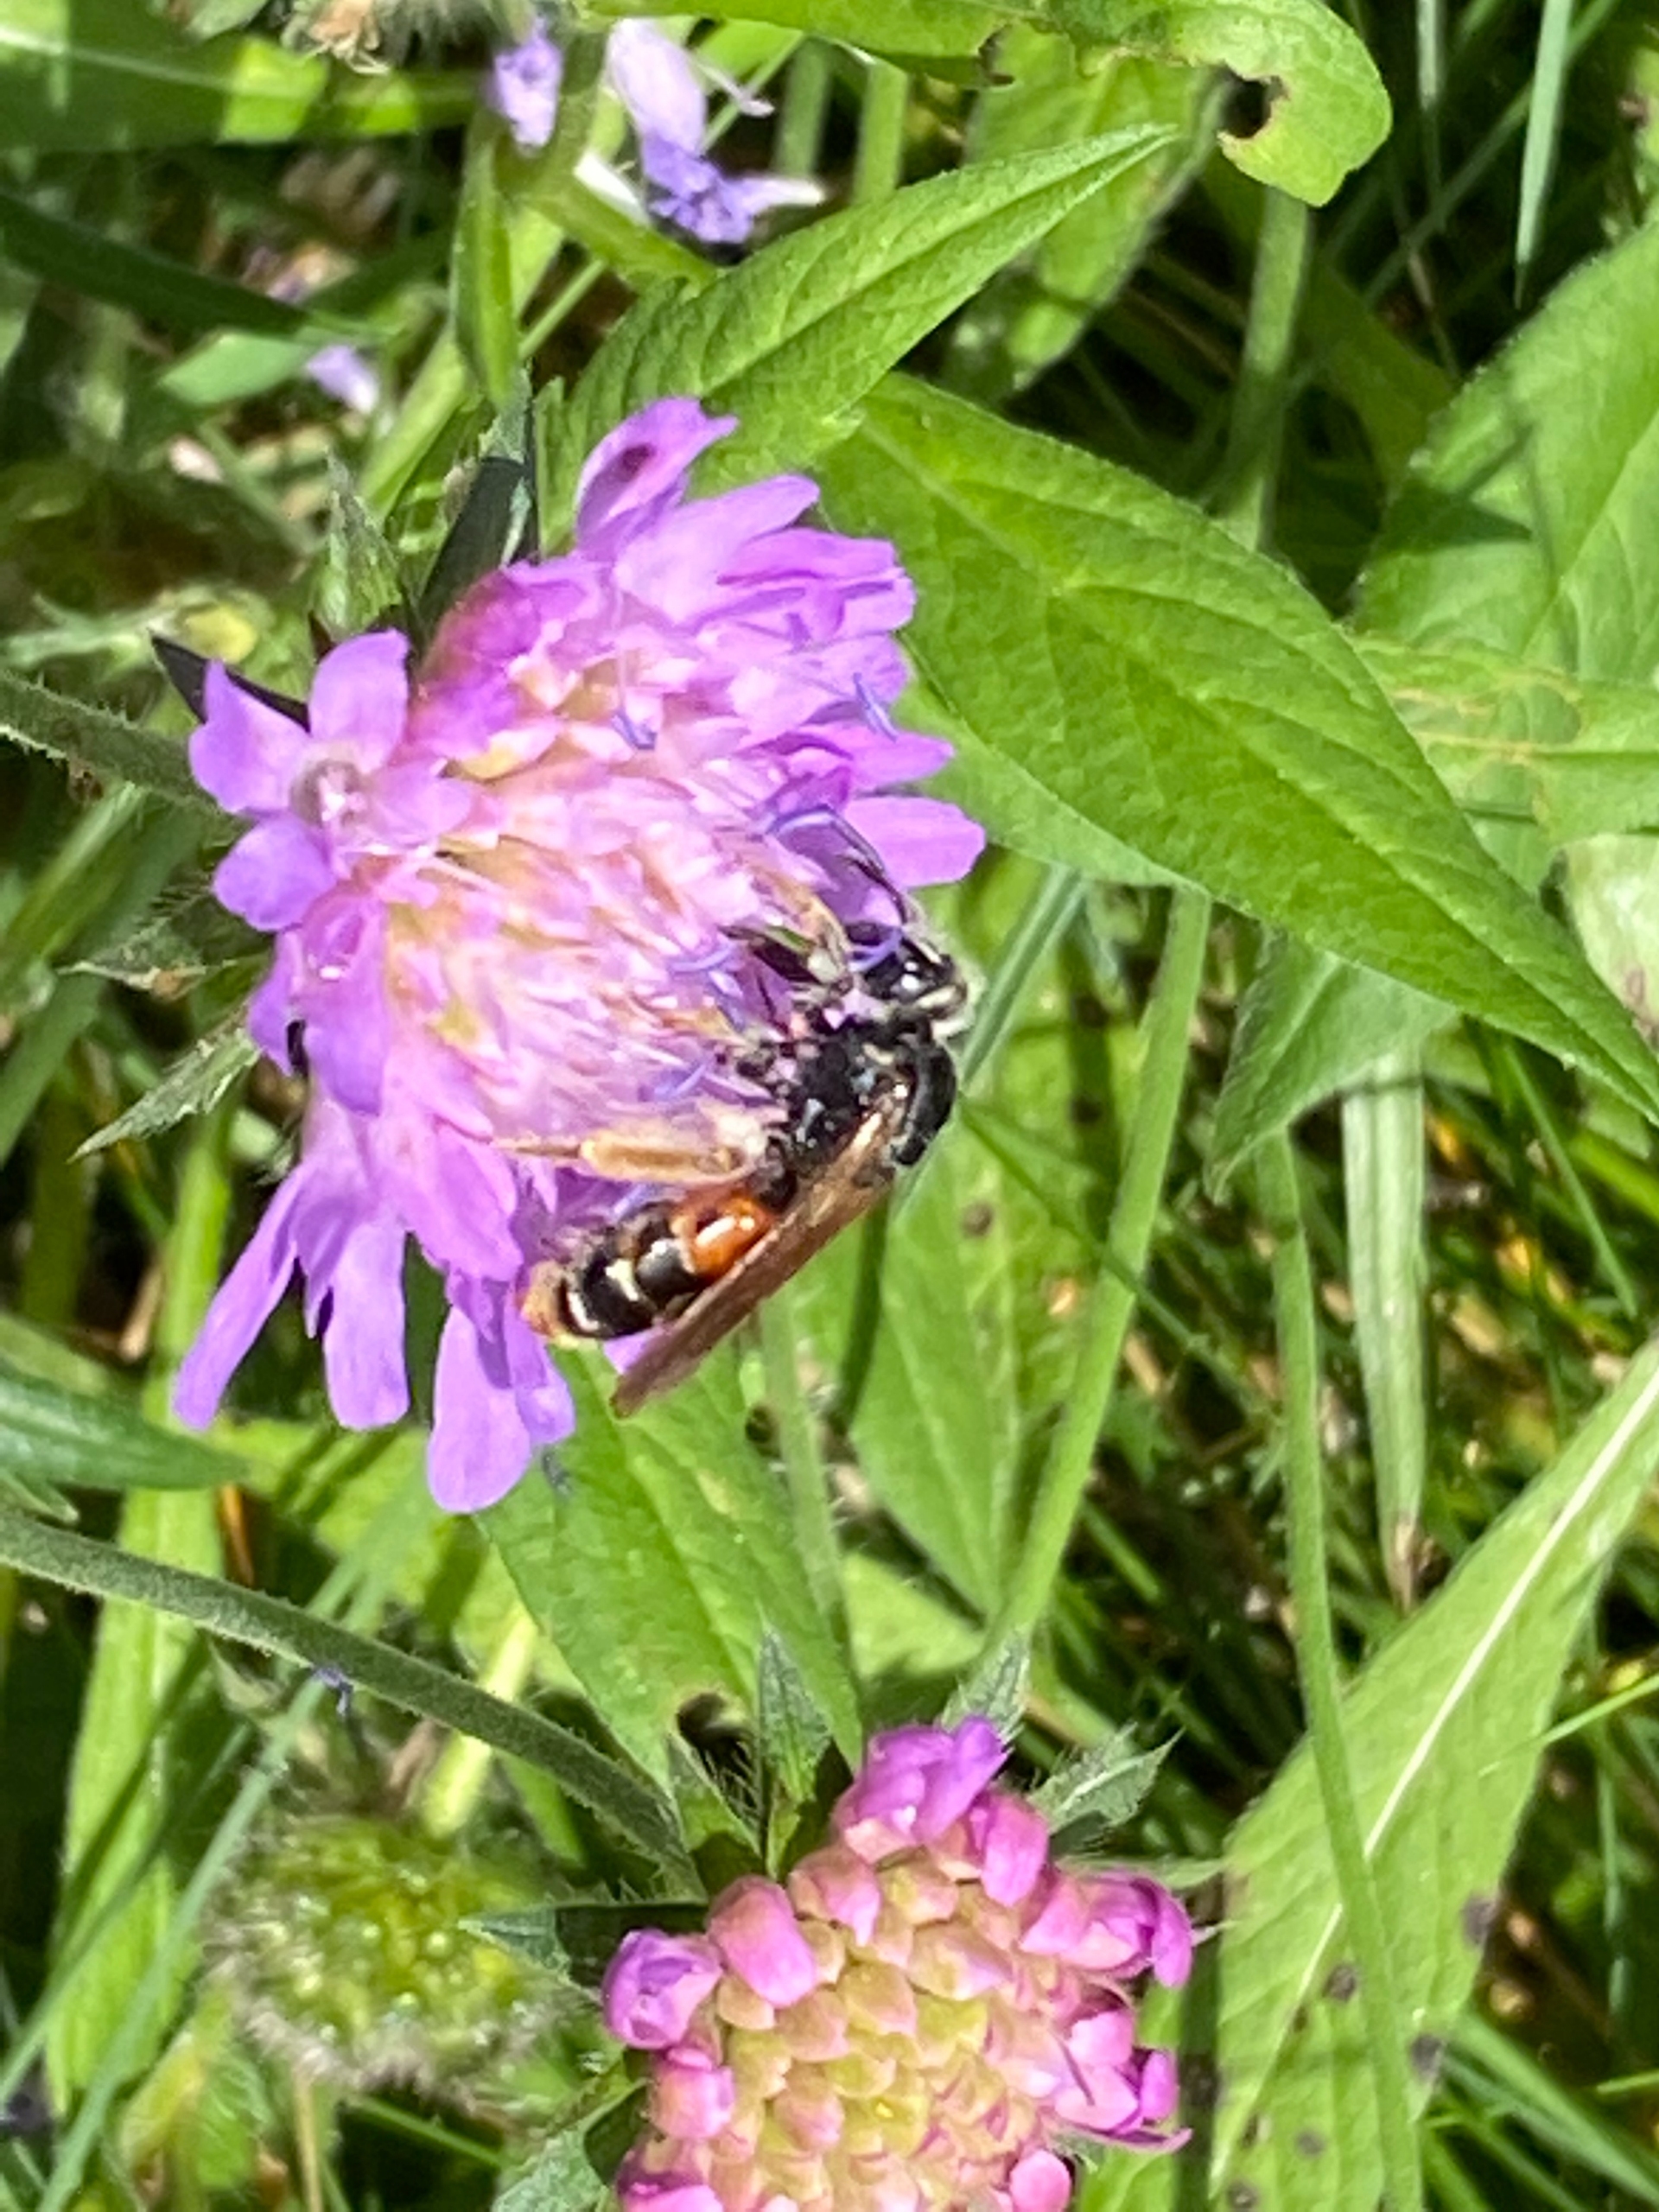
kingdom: Animalia
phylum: Arthropoda
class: Insecta
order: Hymenoptera
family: Andrenidae
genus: Andrena
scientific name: Andrena hattorfiana
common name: Blåhatjordbi
